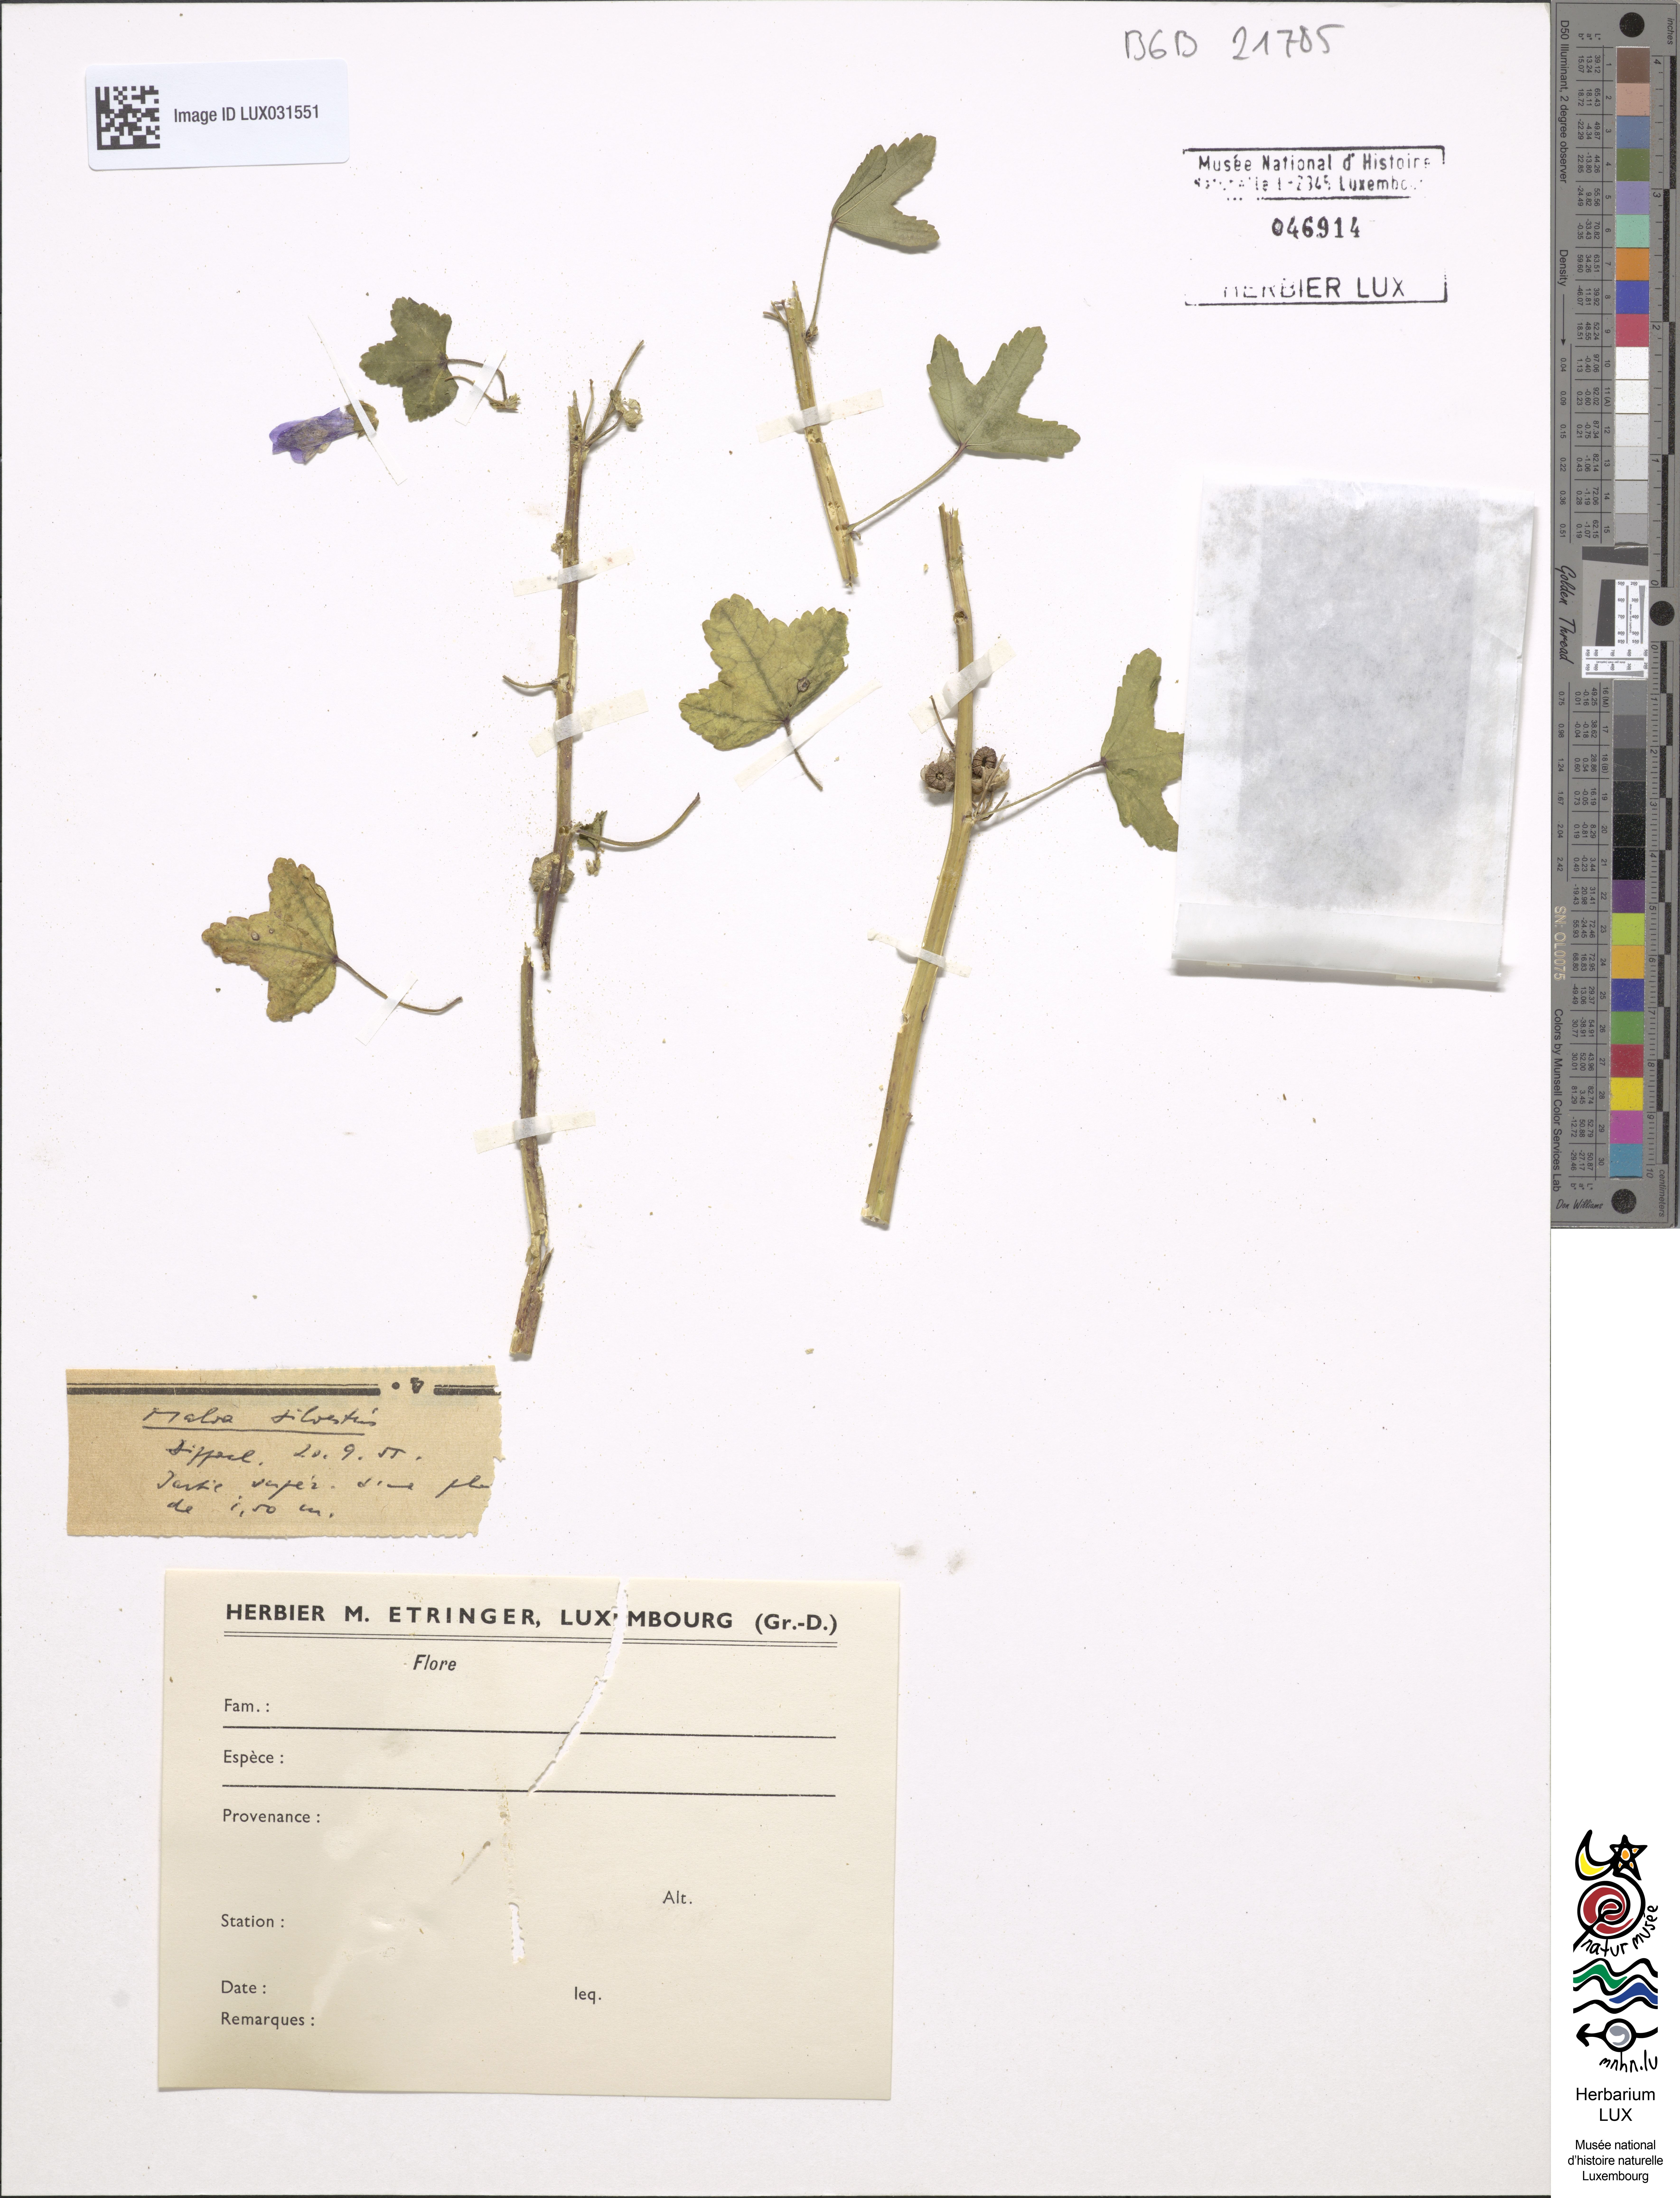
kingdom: Plantae
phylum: Tracheophyta
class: Magnoliopsida
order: Malvales
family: Malvaceae
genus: Malva
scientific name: Malva sylvestris
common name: Common mallow
